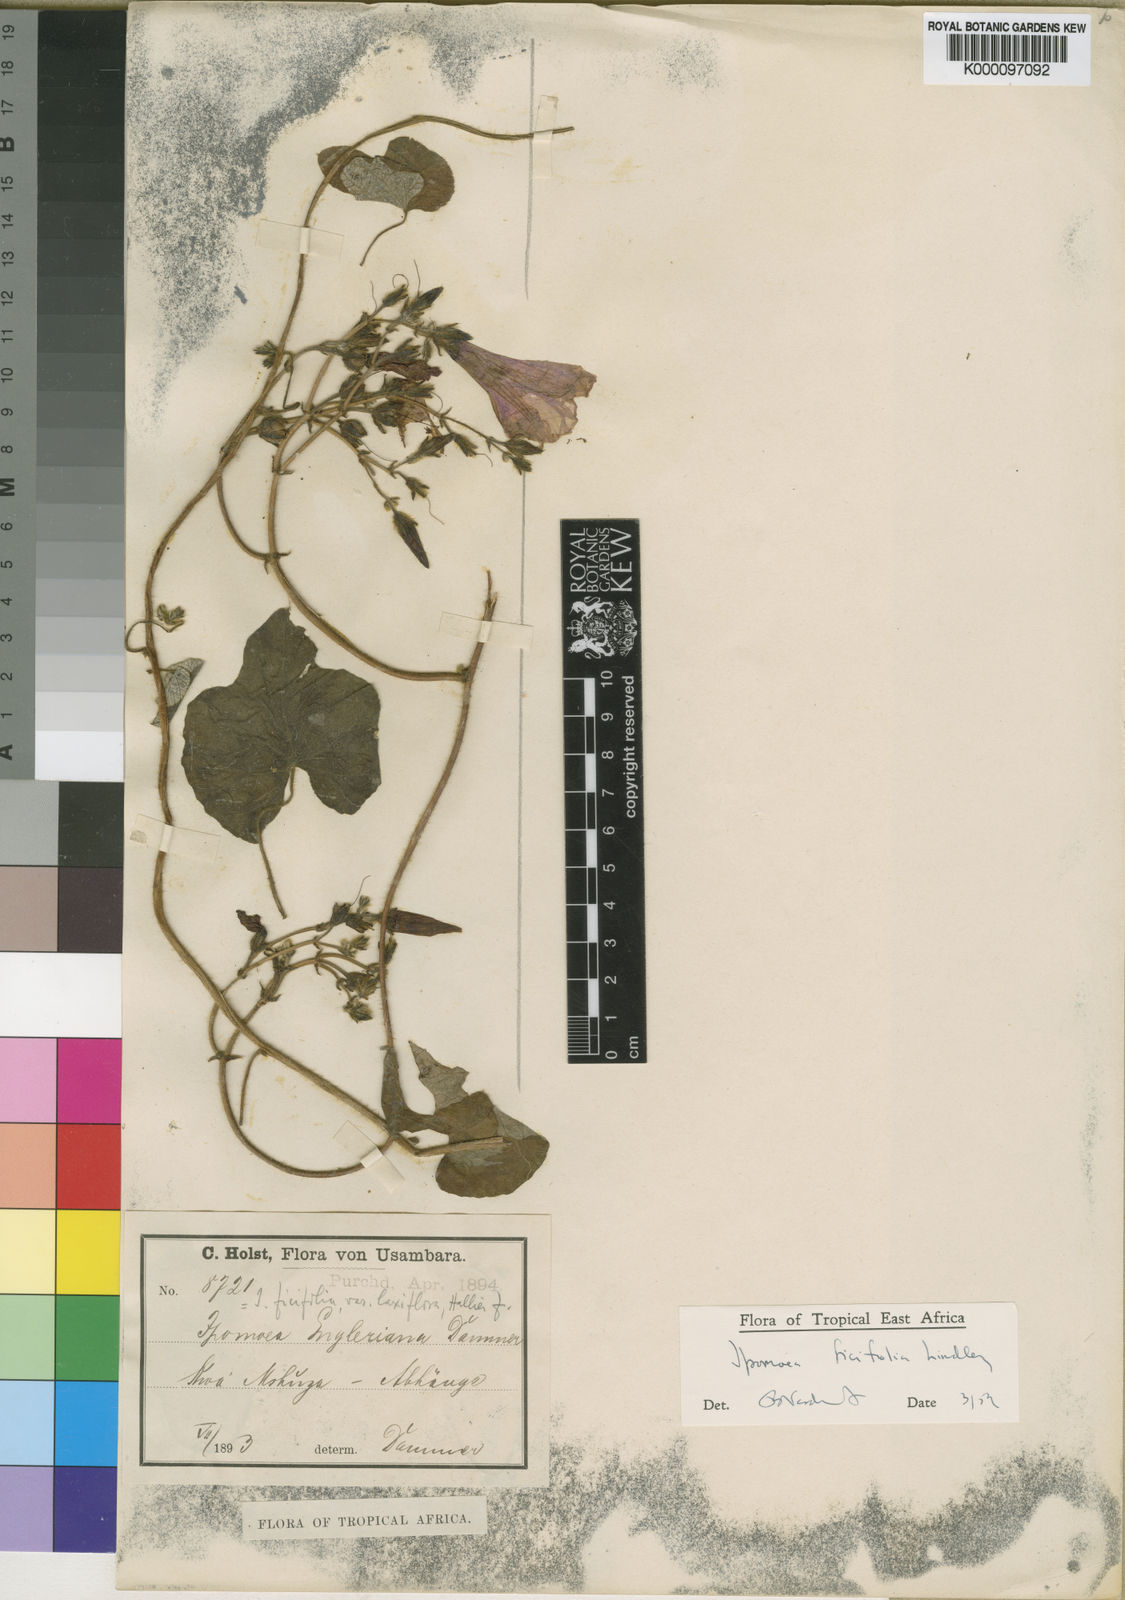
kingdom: Plantae
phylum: Tracheophyta
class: Magnoliopsida
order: Solanales
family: Convolvulaceae
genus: Ipomoea
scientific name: Ipomoea ficifolia
